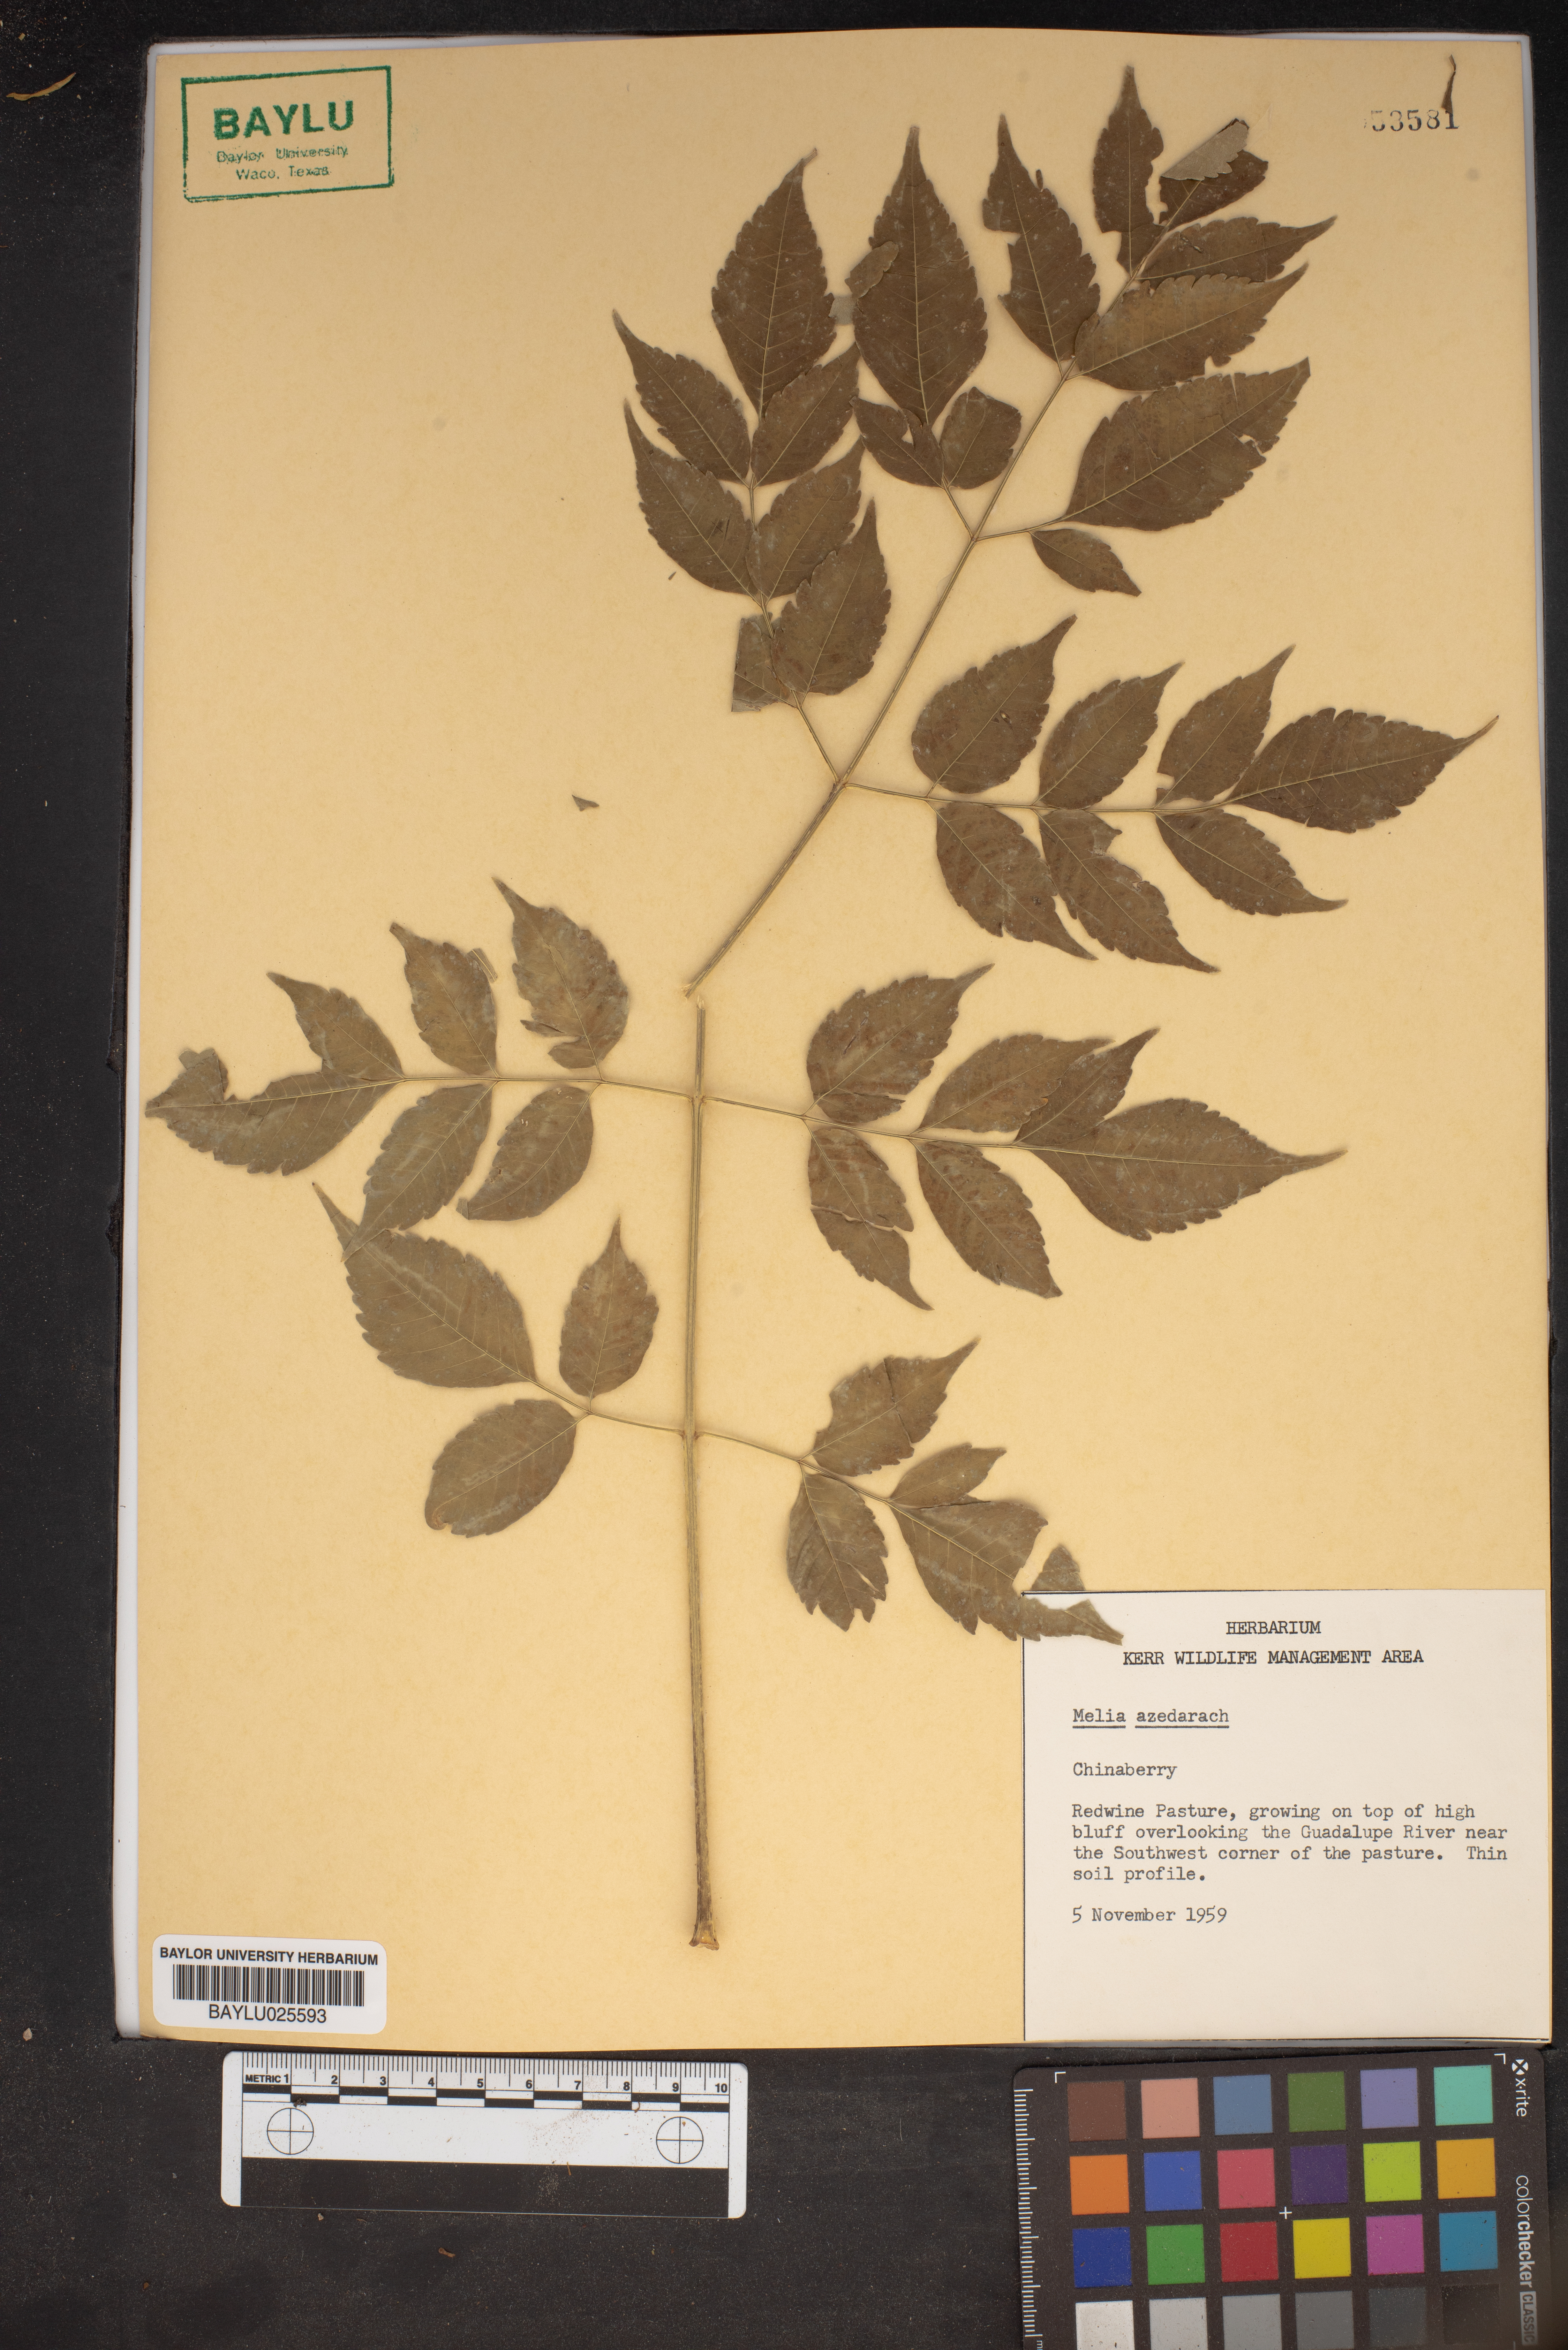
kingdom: Plantae
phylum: Tracheophyta
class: Magnoliopsida
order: Sapindales
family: Meliaceae
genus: Melia
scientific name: Melia azedarach
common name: Chinaberrytree
